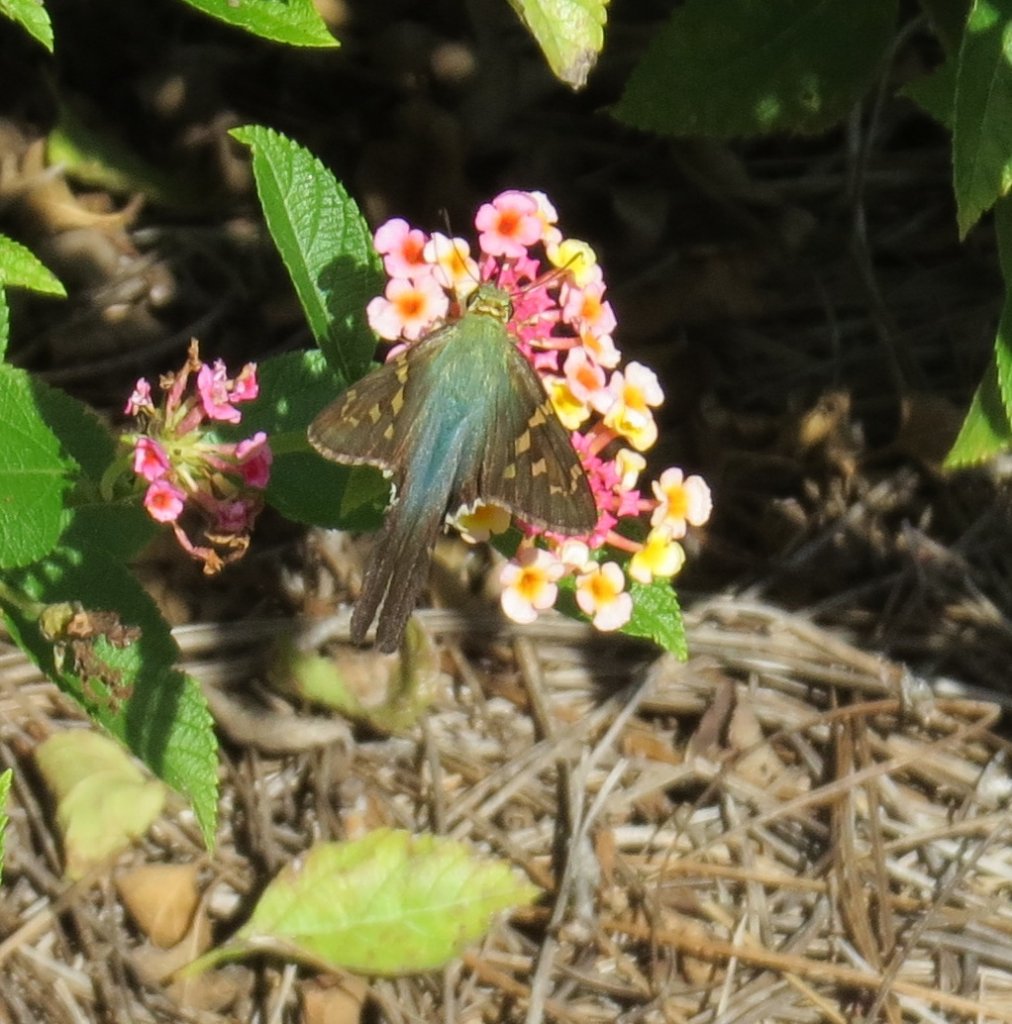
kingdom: Animalia
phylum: Arthropoda
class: Insecta
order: Lepidoptera
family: Hesperiidae
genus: Urbanus
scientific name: Urbanus proteus
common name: Long-tailed Skipper
